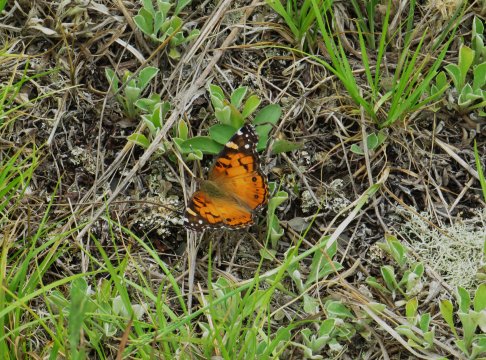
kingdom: Animalia
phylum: Arthropoda
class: Insecta
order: Lepidoptera
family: Nymphalidae
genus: Vanessa
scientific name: Vanessa virginiensis
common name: American Lady
